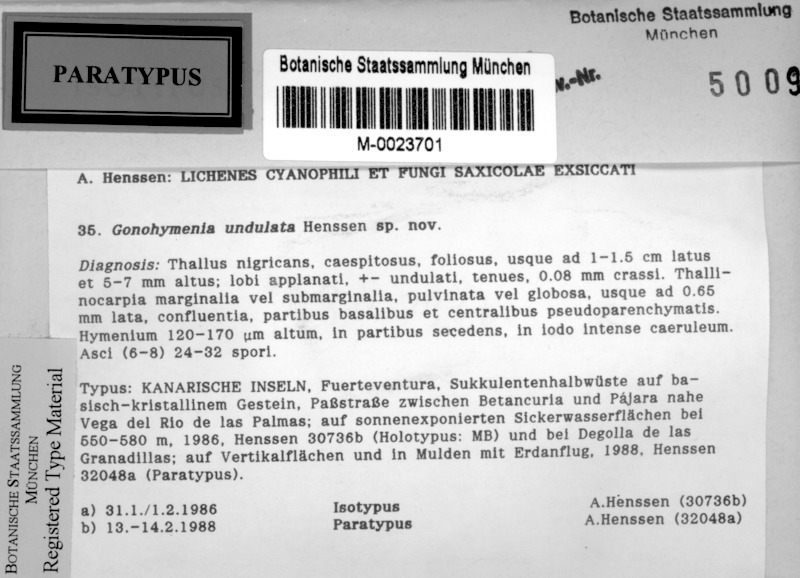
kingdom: Fungi
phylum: Ascomycota
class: Lichinomycetes
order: Lichinales
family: Lichinaceae
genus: Lichinella
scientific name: Lichinella undulata
